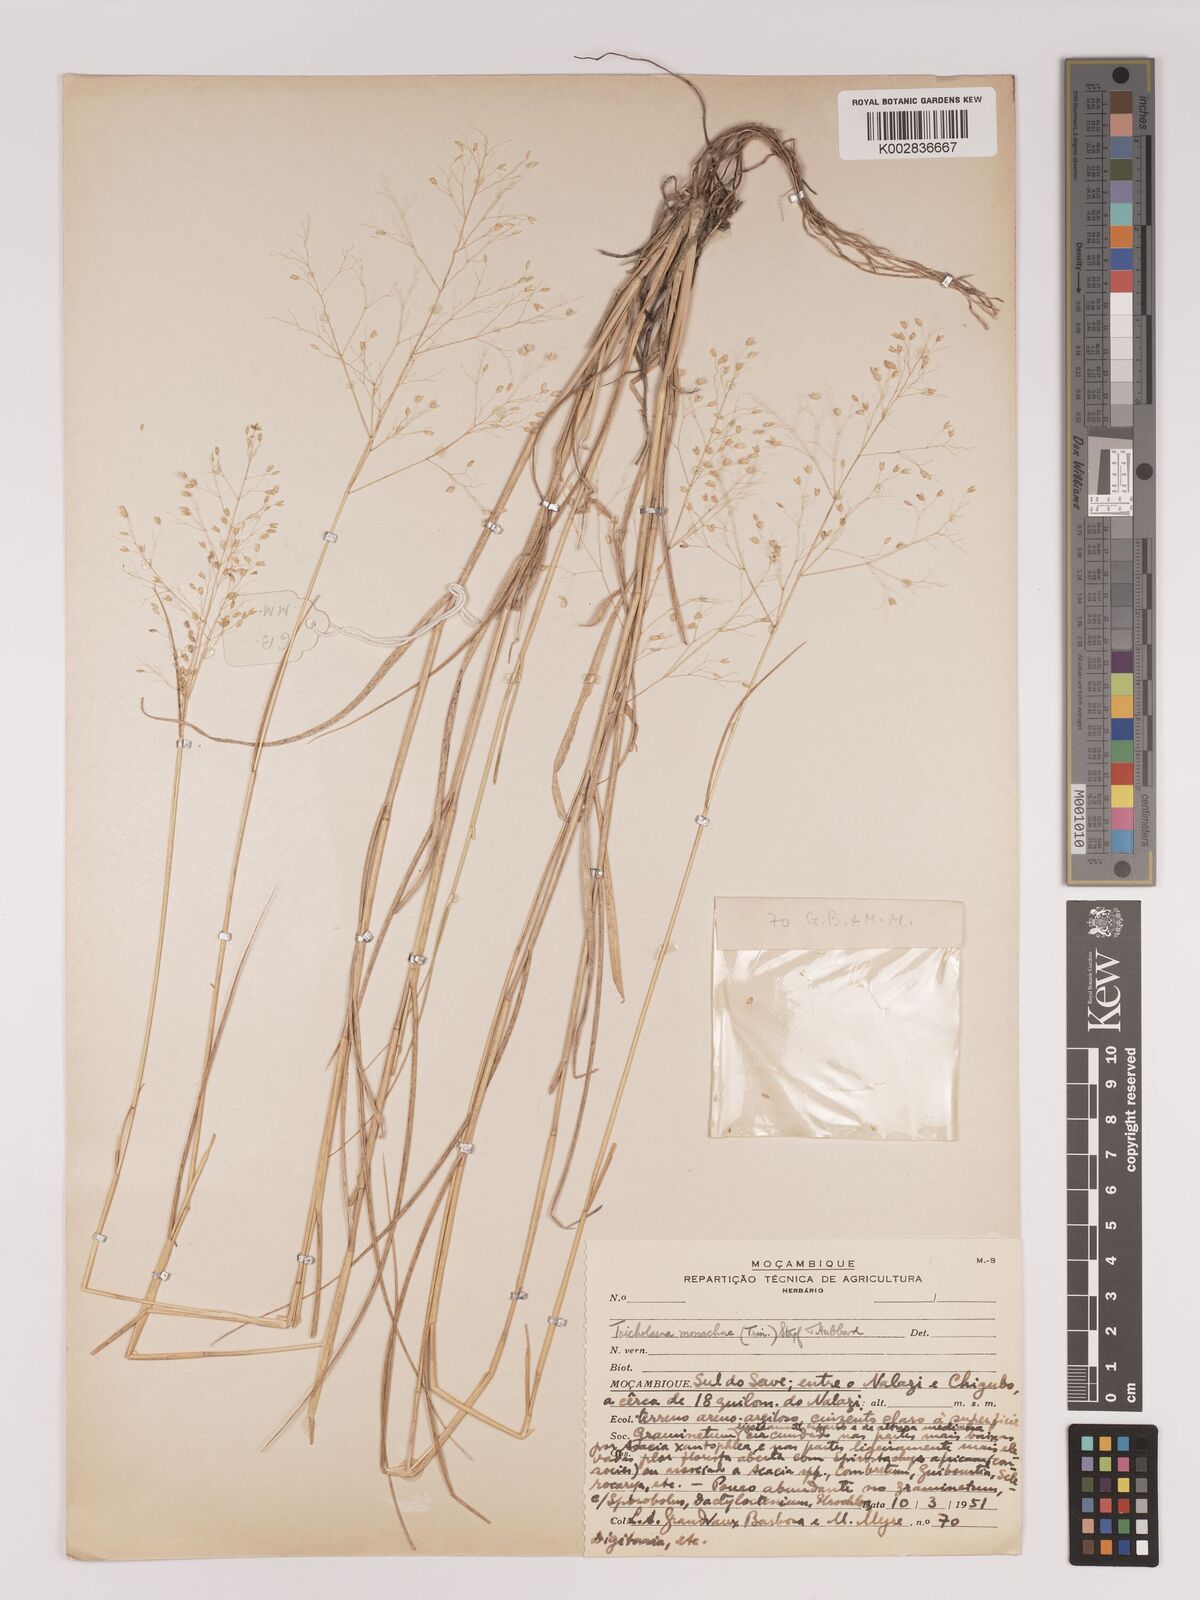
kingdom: Plantae
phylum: Tracheophyta
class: Liliopsida
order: Poales
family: Poaceae
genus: Tricholaena
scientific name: Tricholaena monachne
